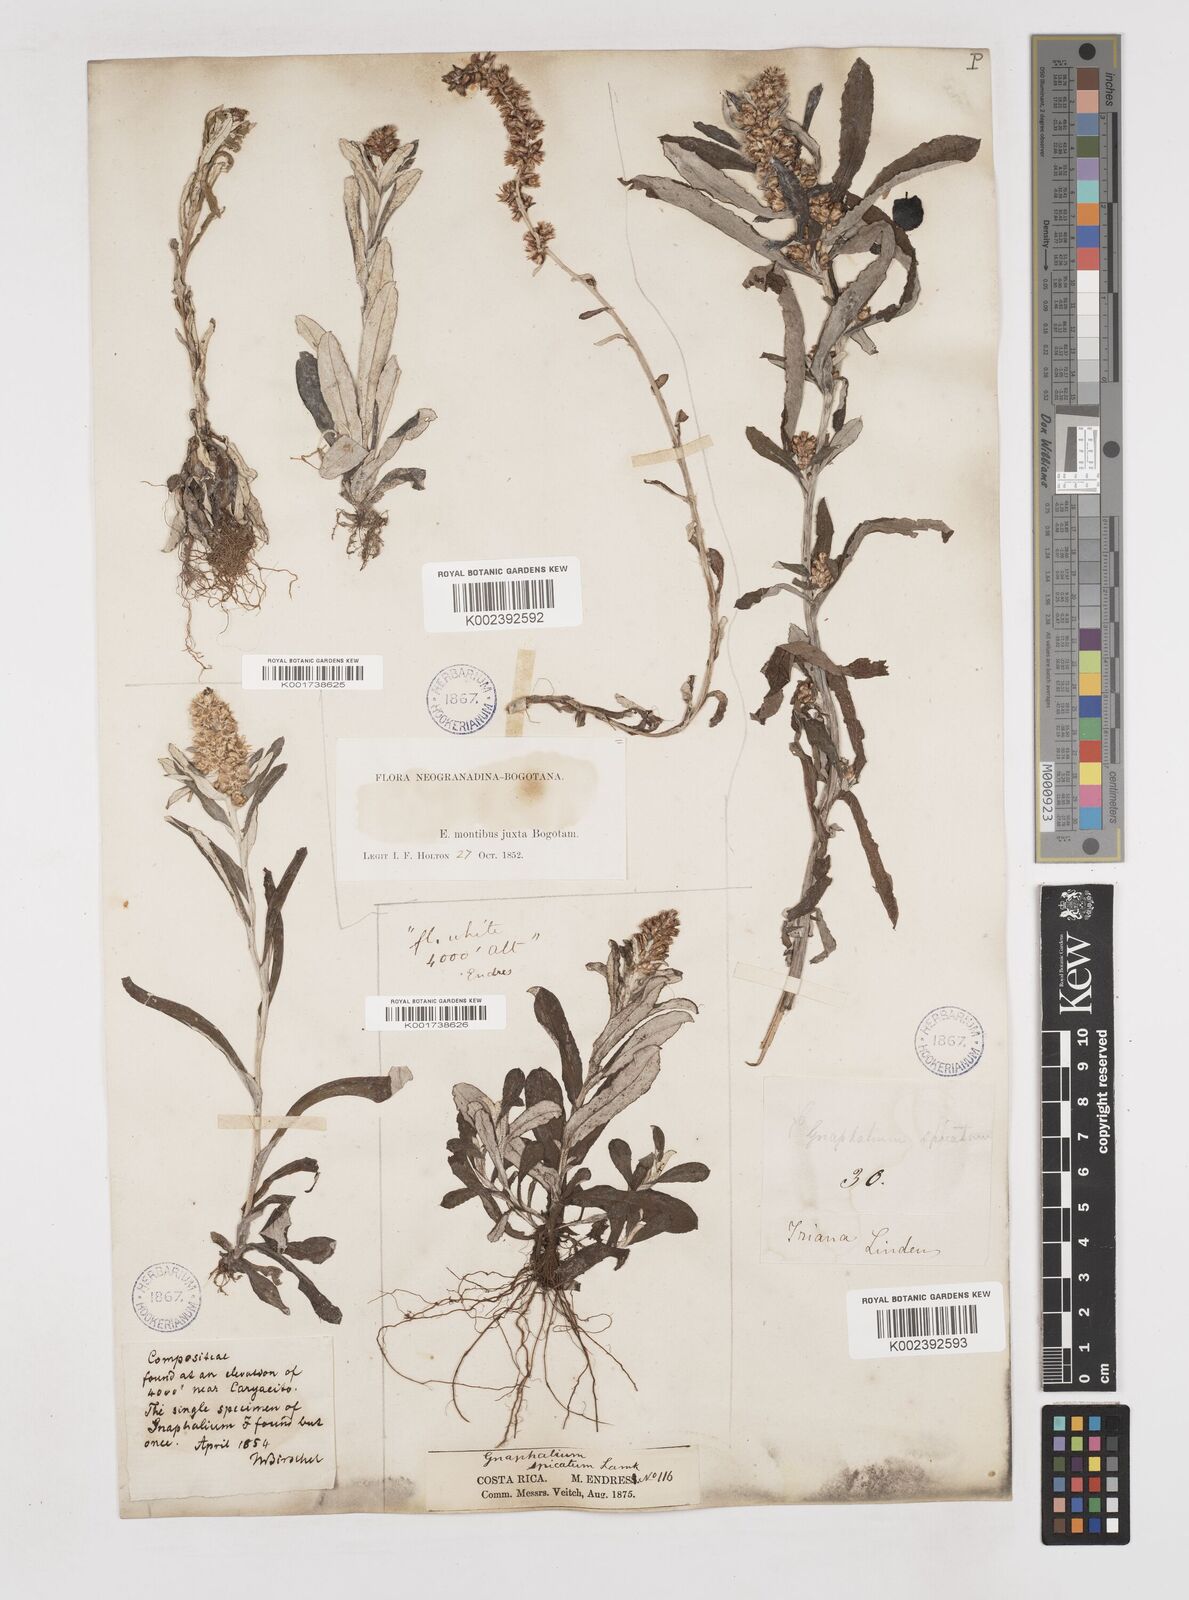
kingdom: Plantae
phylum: Tracheophyta
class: Magnoliopsida
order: Asterales
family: Asteraceae
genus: Gamochaeta
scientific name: Gamochaeta americana
